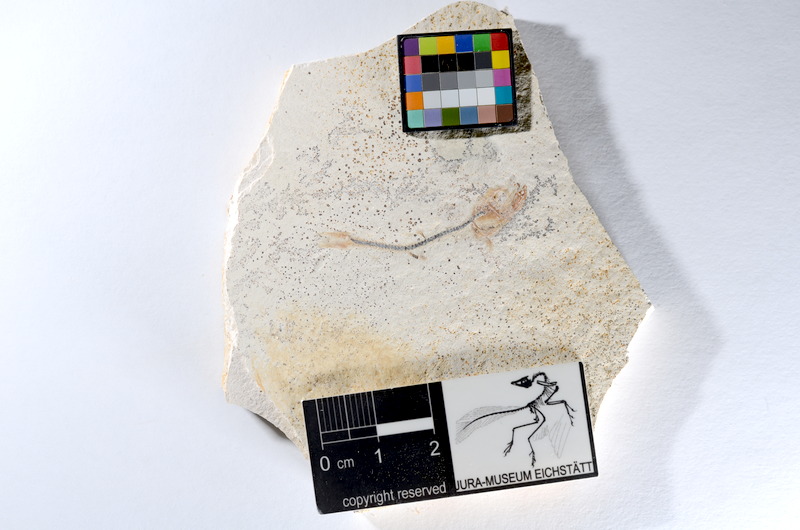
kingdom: Animalia
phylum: Chordata
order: Salmoniformes
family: Orthogonikleithridae
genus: Orthogonikleithrus
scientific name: Orthogonikleithrus hoelli
